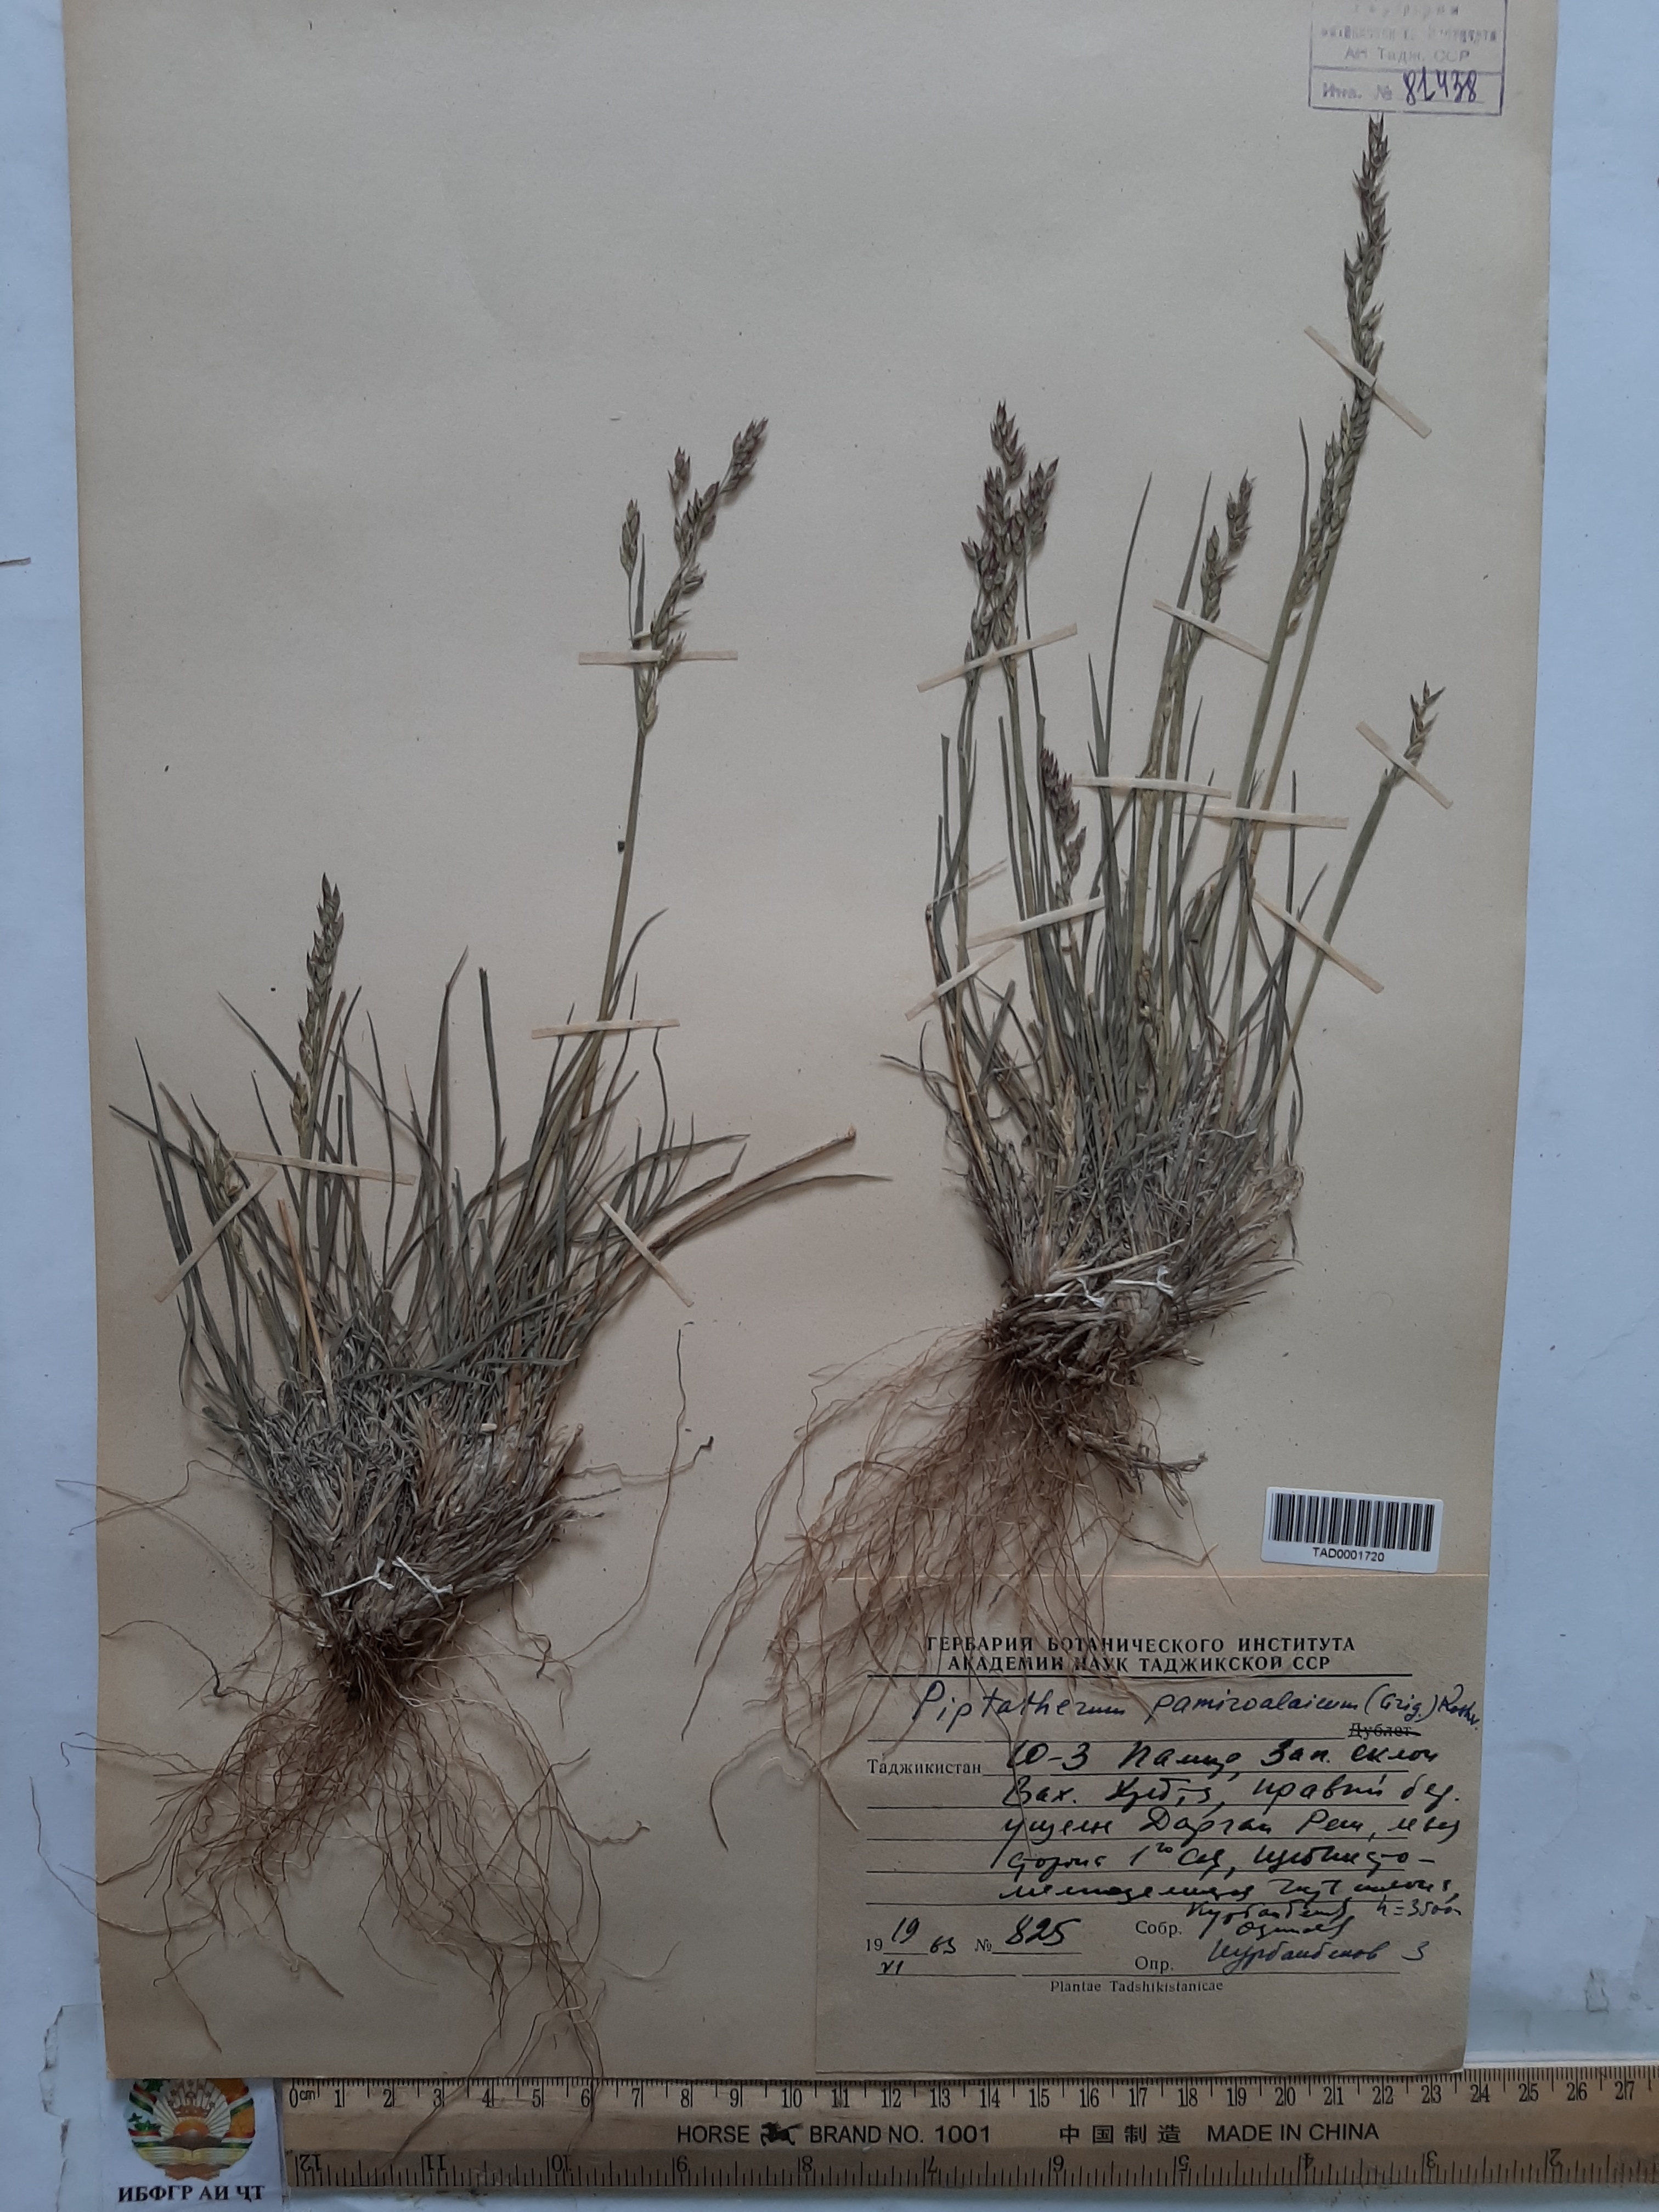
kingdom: Plantae
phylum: Tracheophyta
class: Liliopsida
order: Poales
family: Poaceae
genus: Piptatherum
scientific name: Piptatherum pamiralaicum
